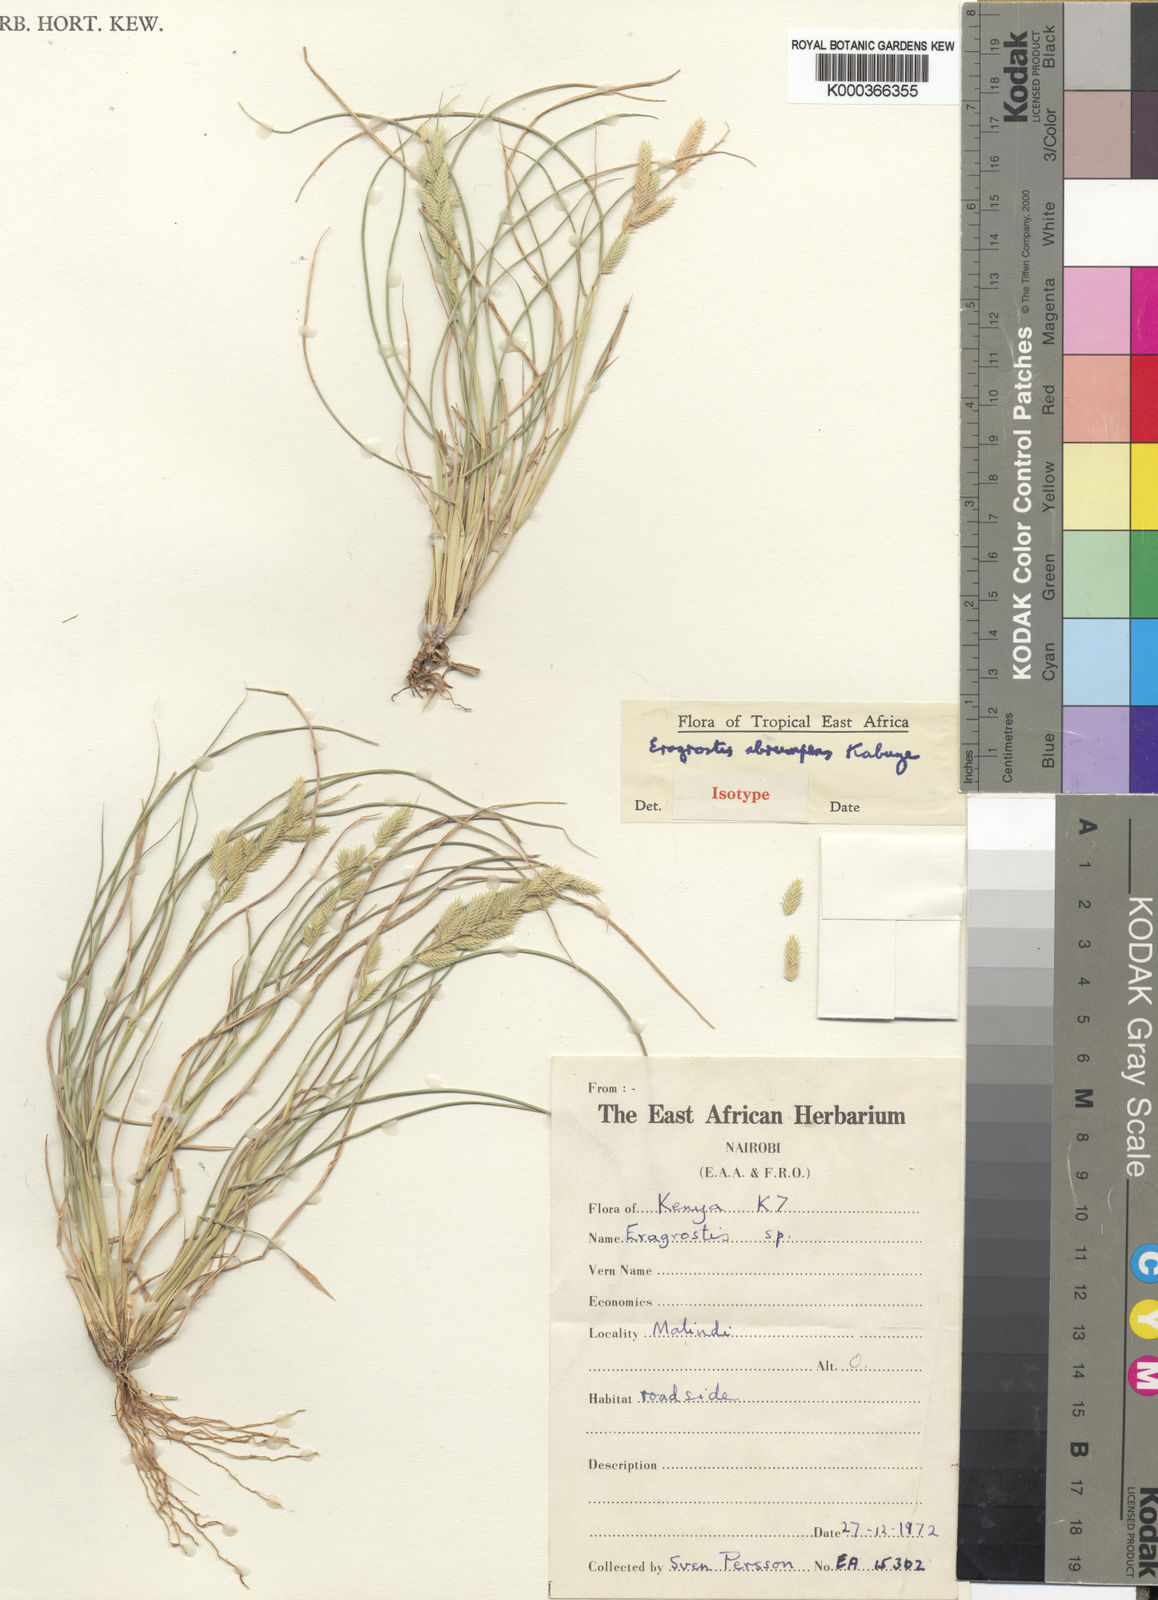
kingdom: Plantae
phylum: Tracheophyta
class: Liliopsida
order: Poales
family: Poaceae
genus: Eragrostis
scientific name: Eragrostis sennii
